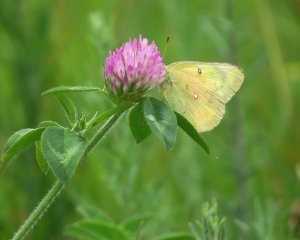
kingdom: Animalia
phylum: Arthropoda
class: Insecta
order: Lepidoptera
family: Pieridae
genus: Colias
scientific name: Colias eurytheme
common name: Orange Sulphur
